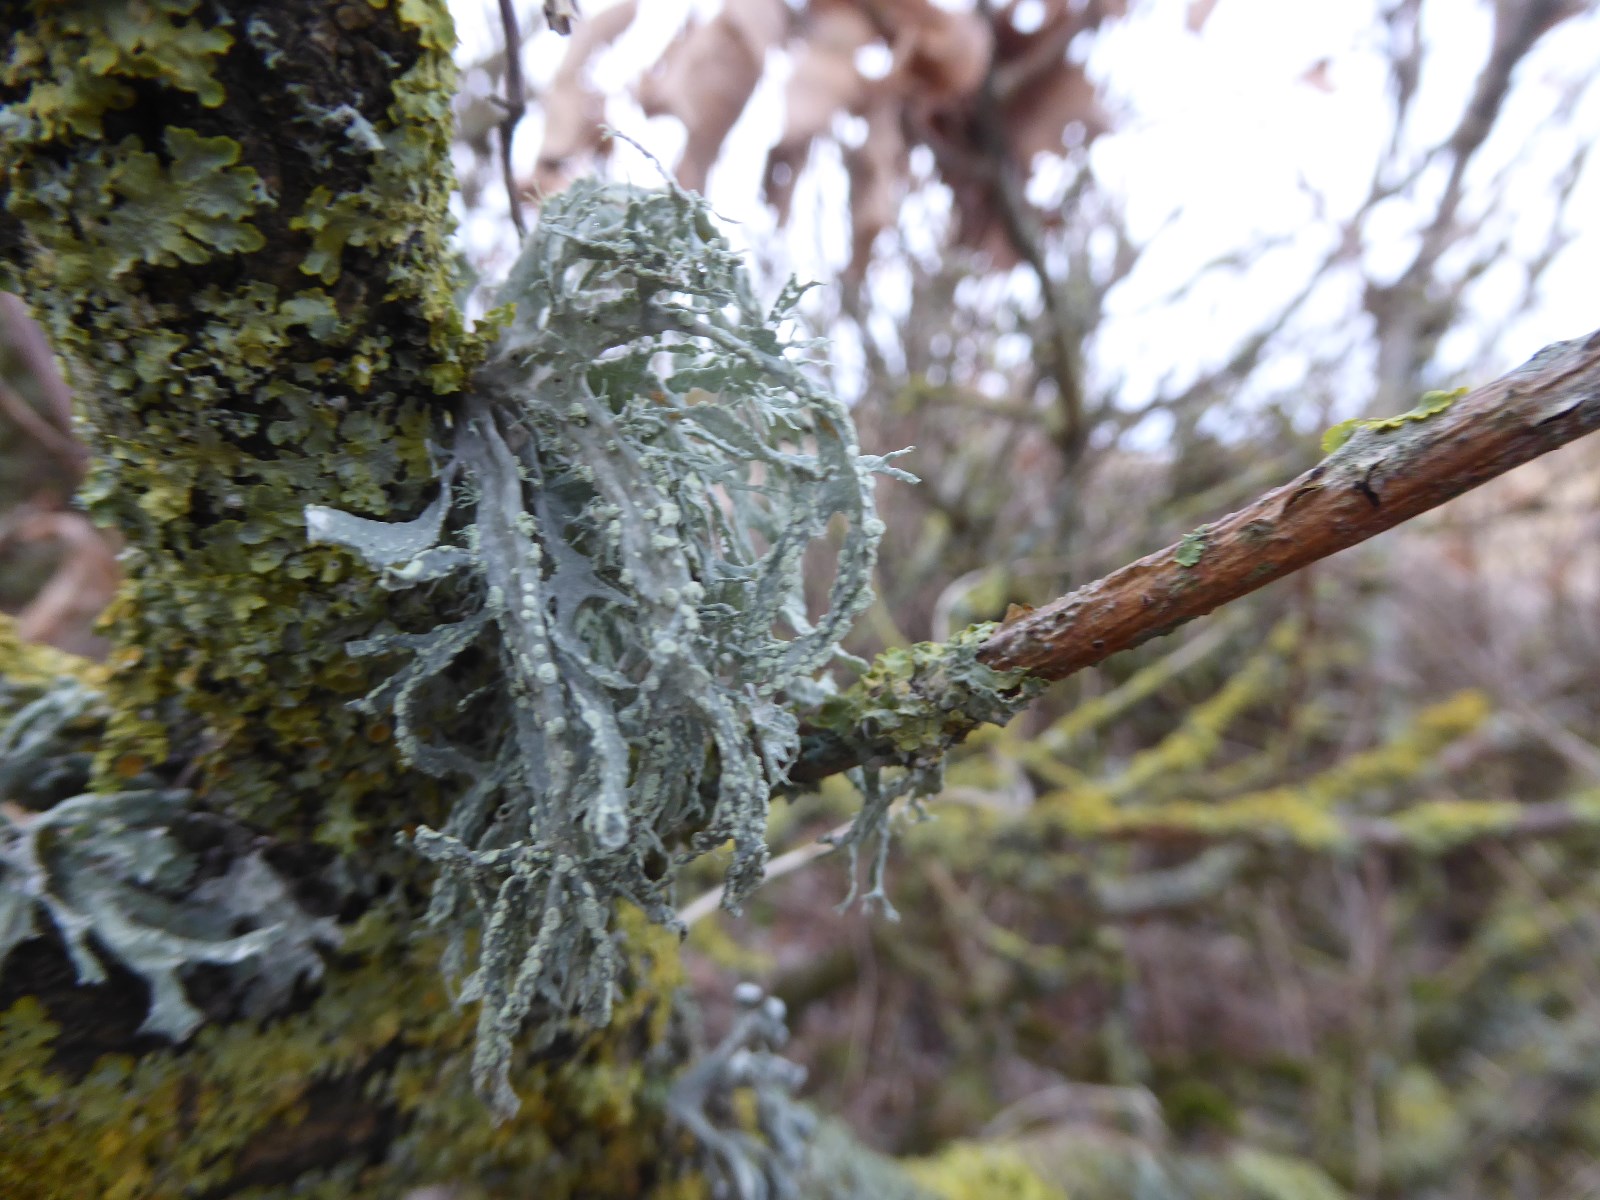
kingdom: Fungi
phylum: Ascomycota
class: Lecanoromycetes
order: Lecanorales
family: Ramalinaceae
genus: Ramalina
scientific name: Ramalina farinacea
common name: melet grenlav
